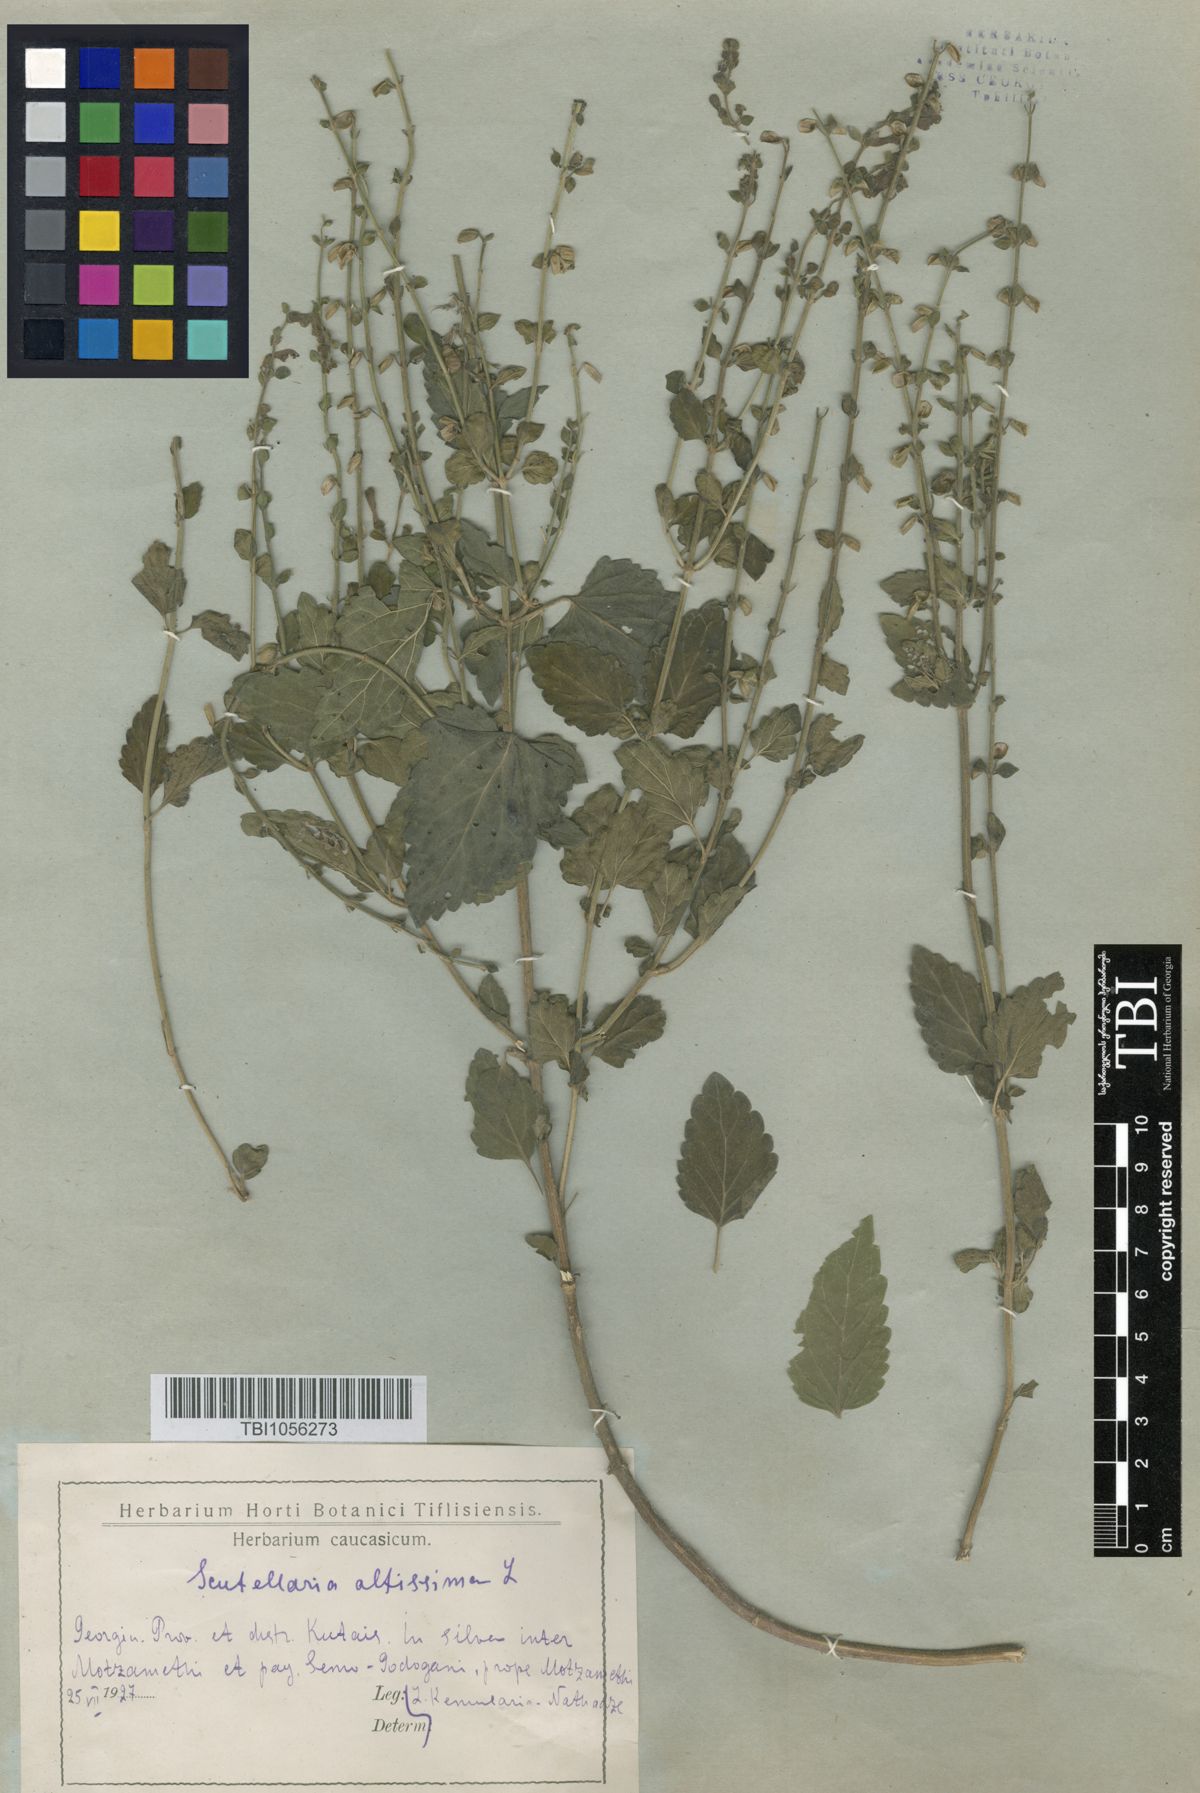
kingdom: Plantae
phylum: Tracheophyta
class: Magnoliopsida
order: Lamiales
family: Lamiaceae
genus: Scutellaria
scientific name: Scutellaria altissima
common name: Somerset skullcap
